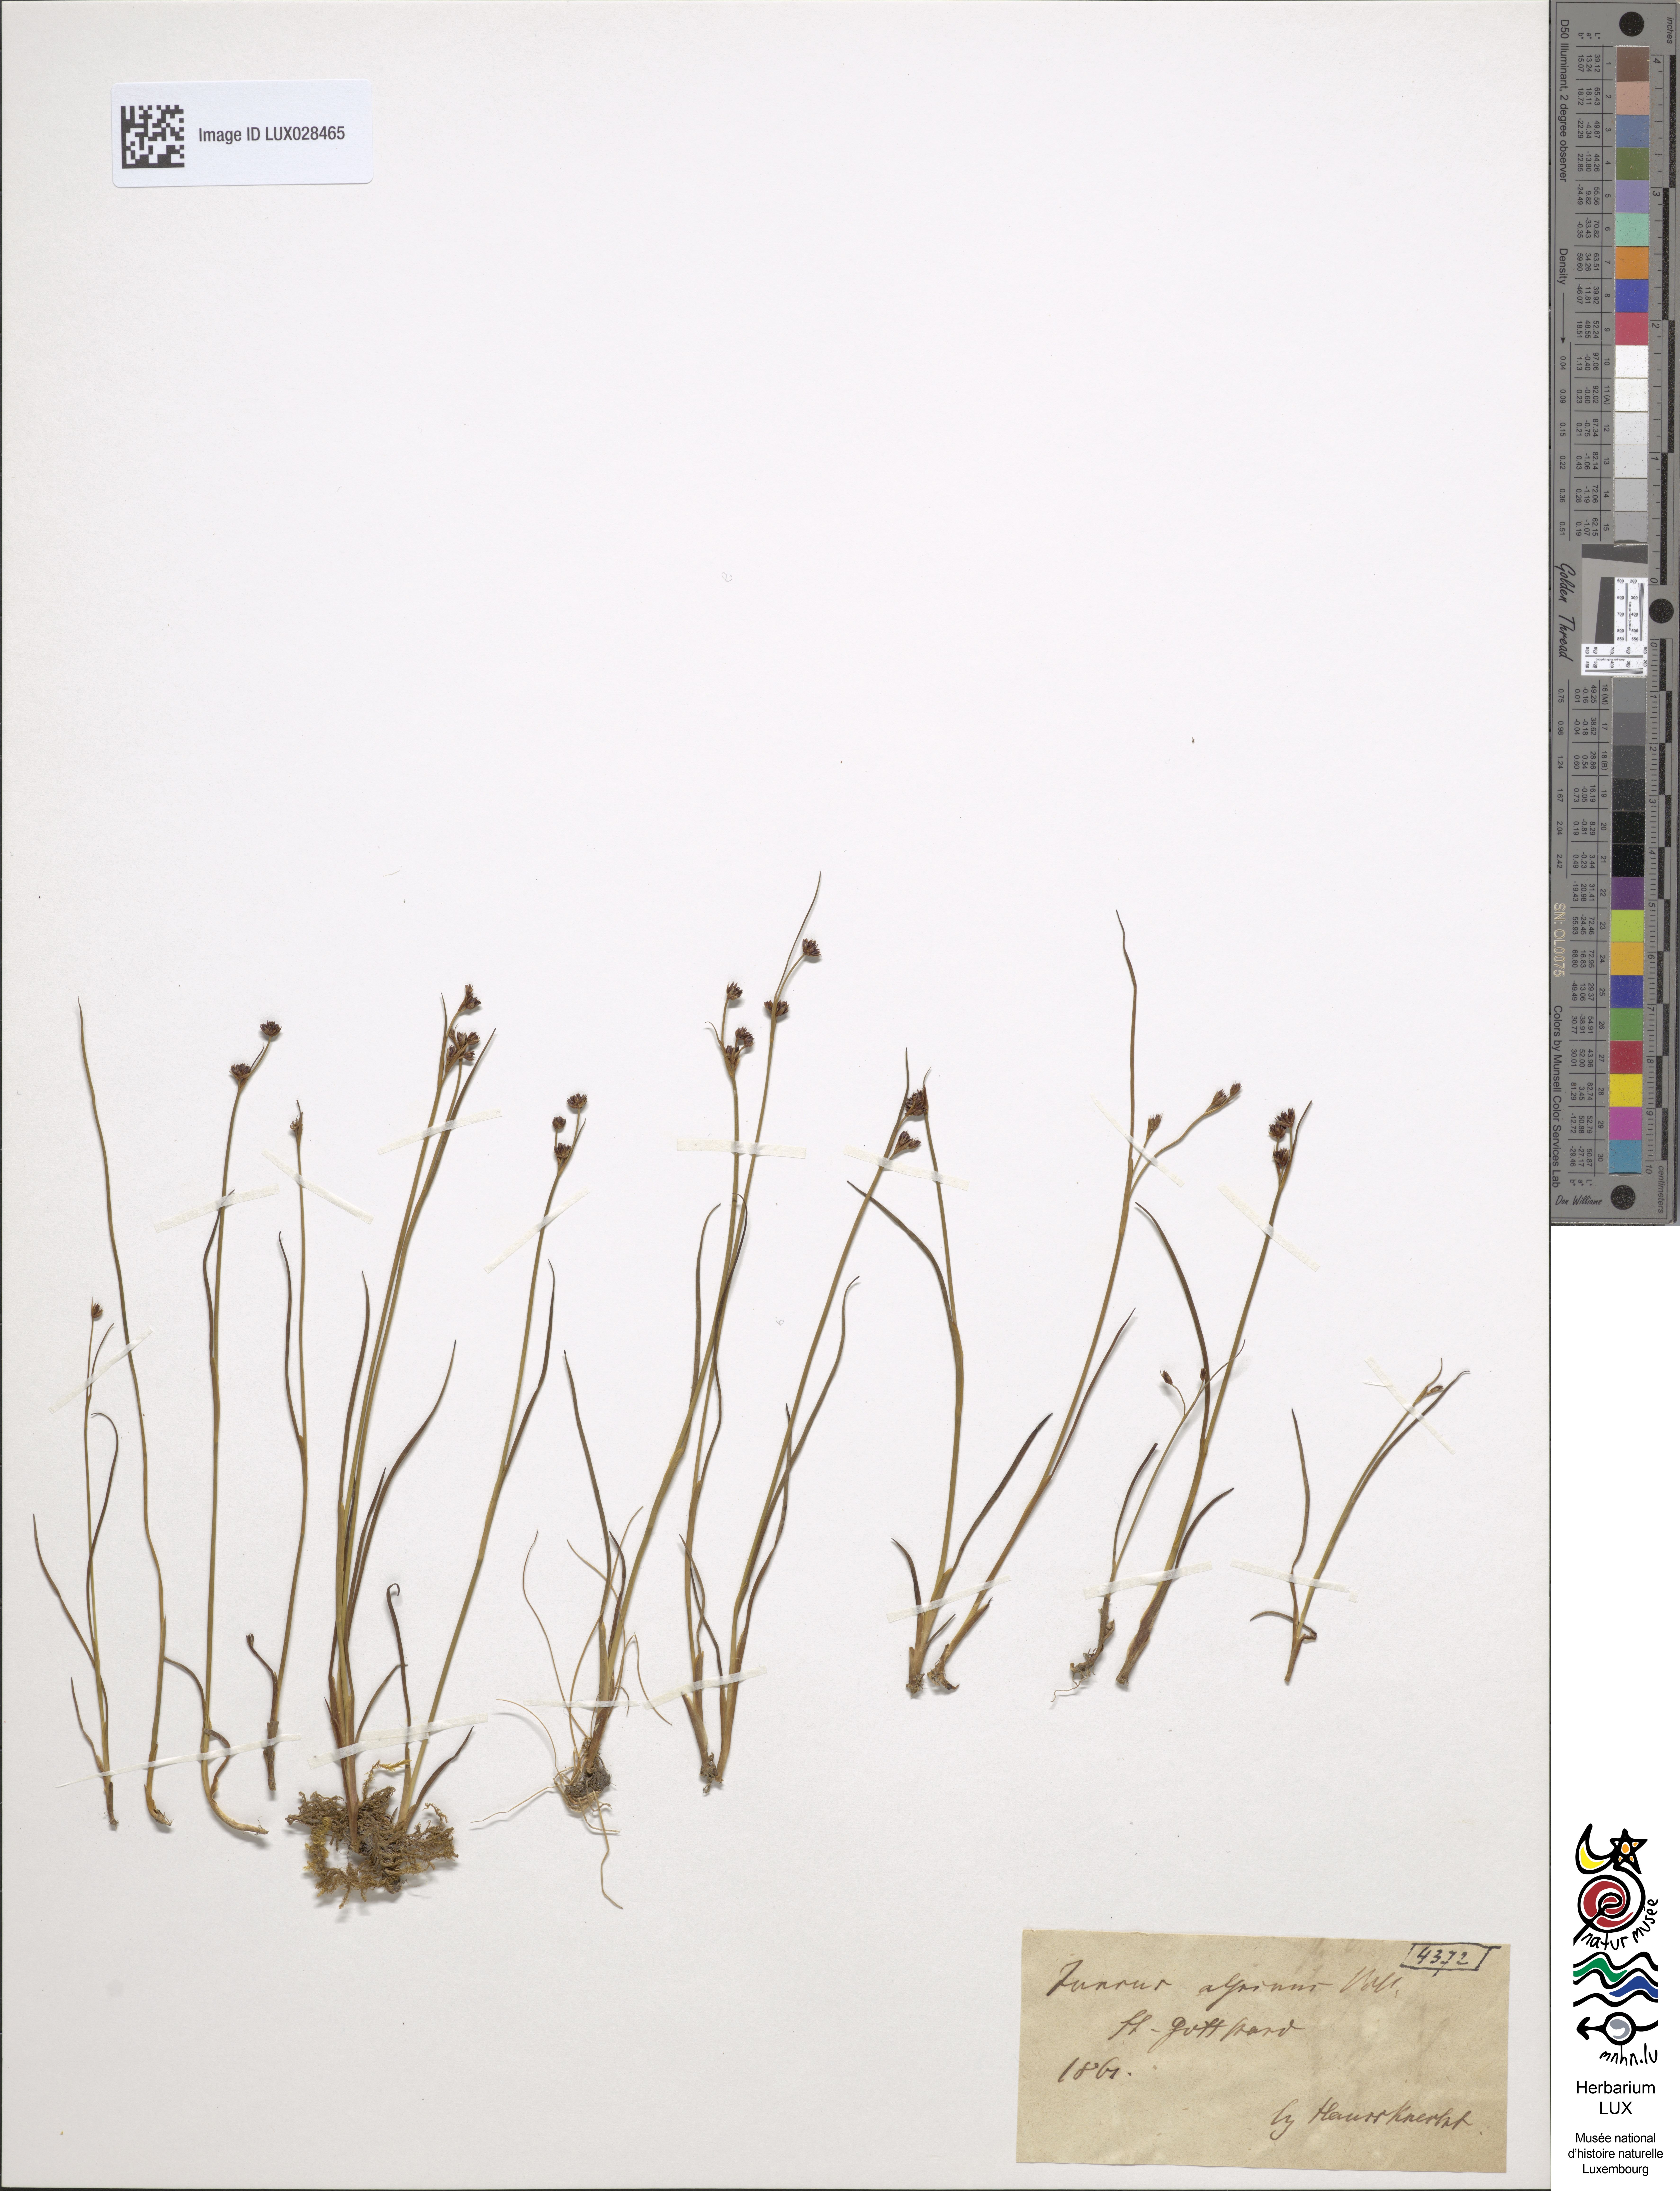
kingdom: Plantae
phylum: Tracheophyta
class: Liliopsida
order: Poales
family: Juncaceae
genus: Juncus
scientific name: Juncus alpinoarticulatus
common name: Alpine rush
